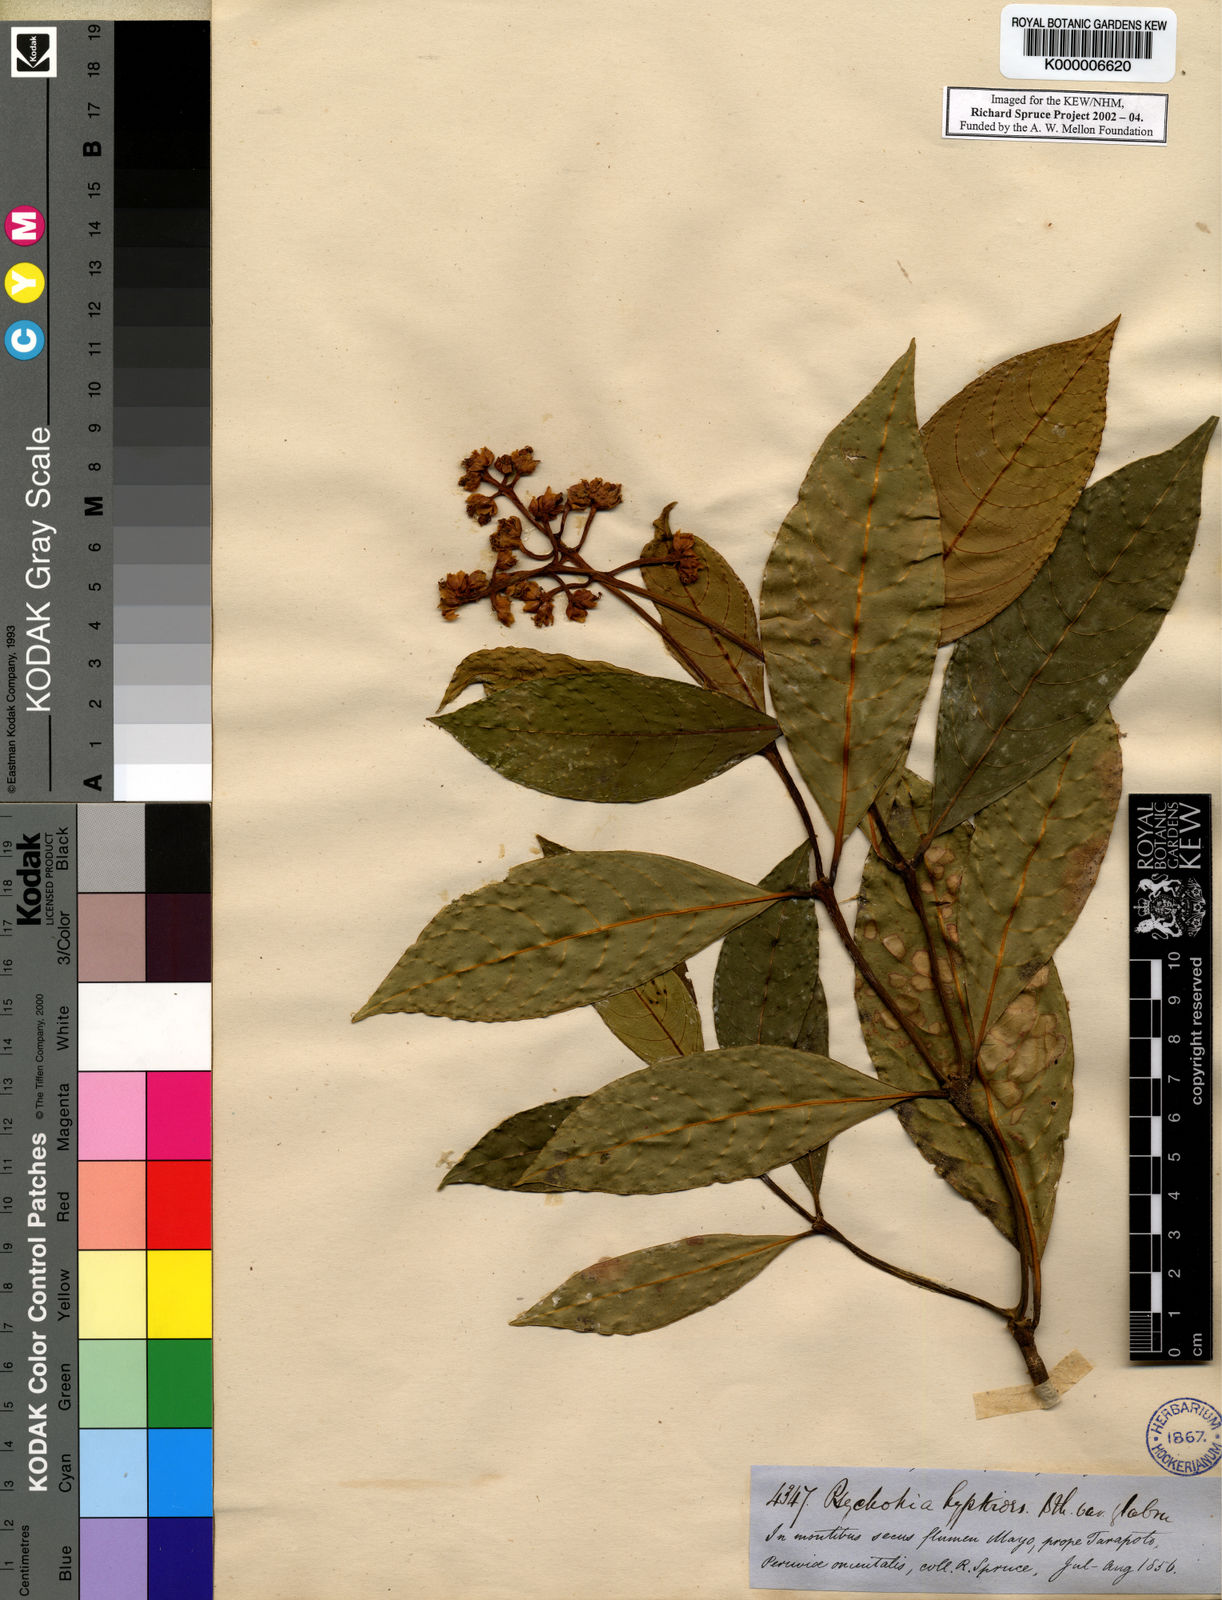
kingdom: Plantae
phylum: Tracheophyta
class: Magnoliopsida
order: Gentianales
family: Rubiaceae
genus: Palicourea
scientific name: Palicourea hyptoides
